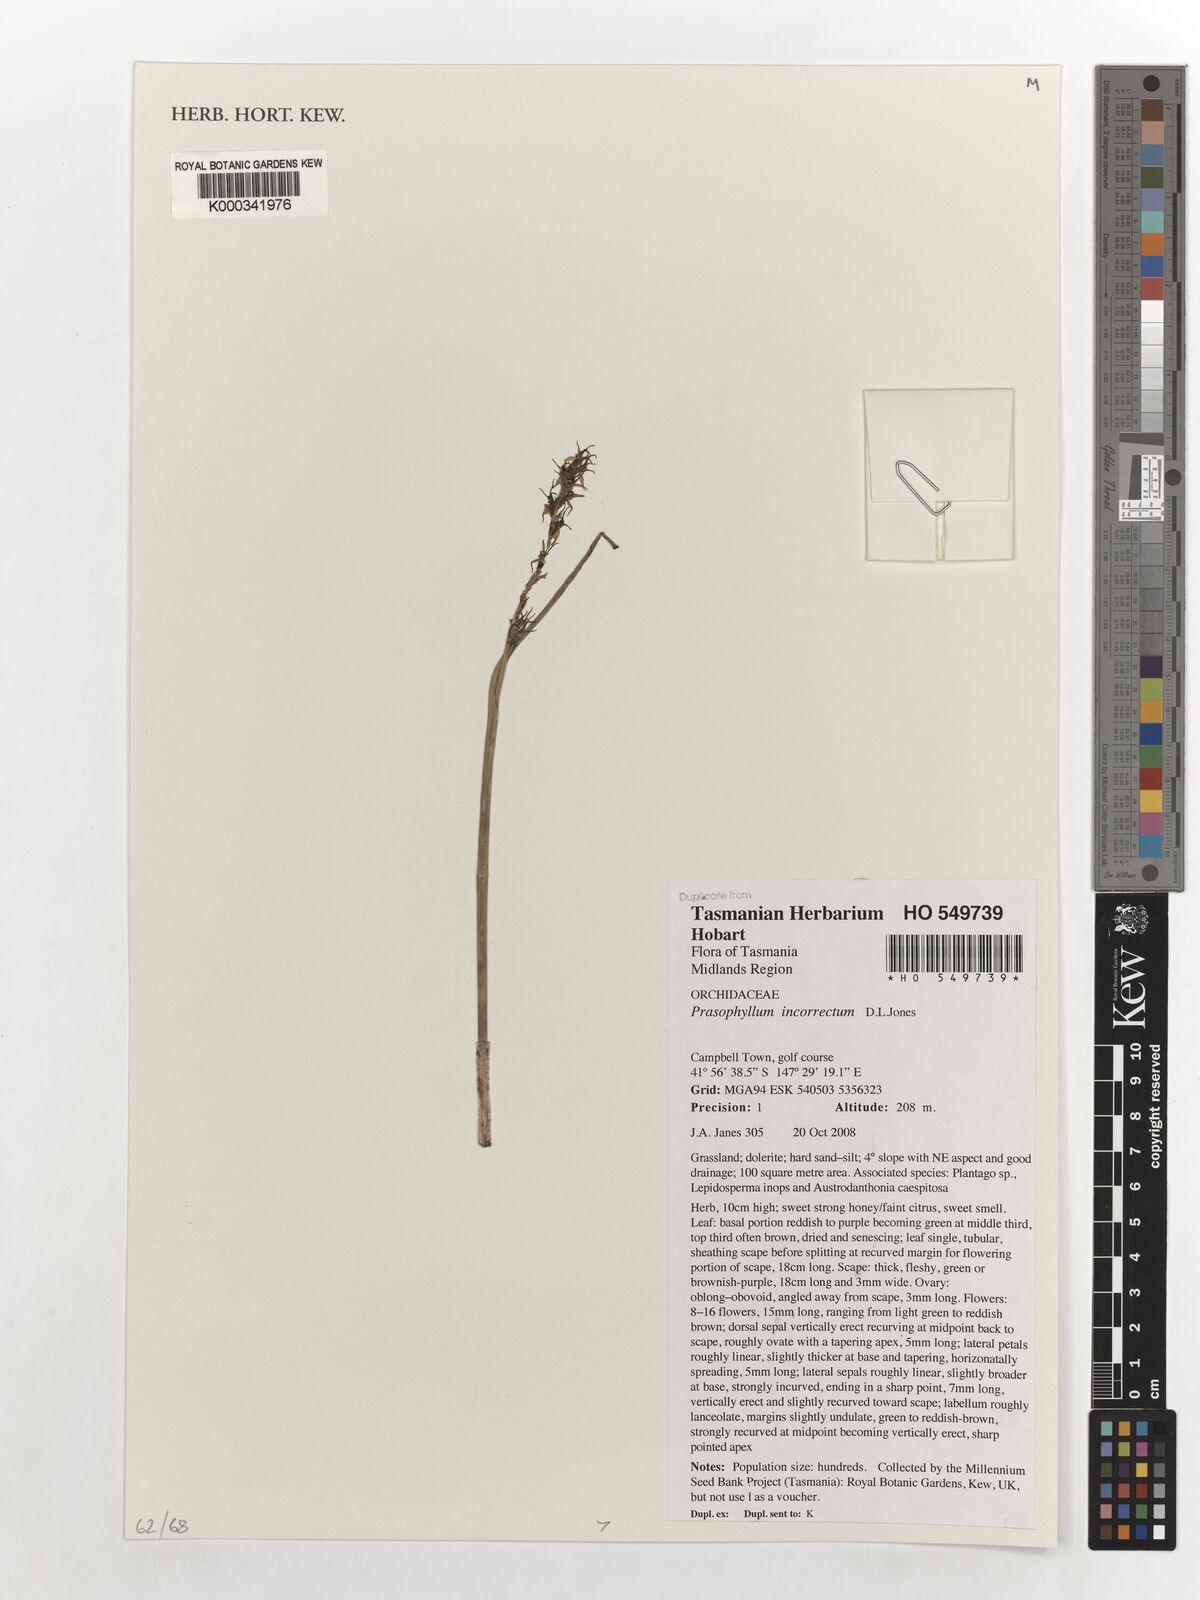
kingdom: Plantae
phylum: Tracheophyta
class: Liliopsida
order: Asparagales
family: Orchidaceae
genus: Prasophyllum
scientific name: Prasophyllum incorrectum
